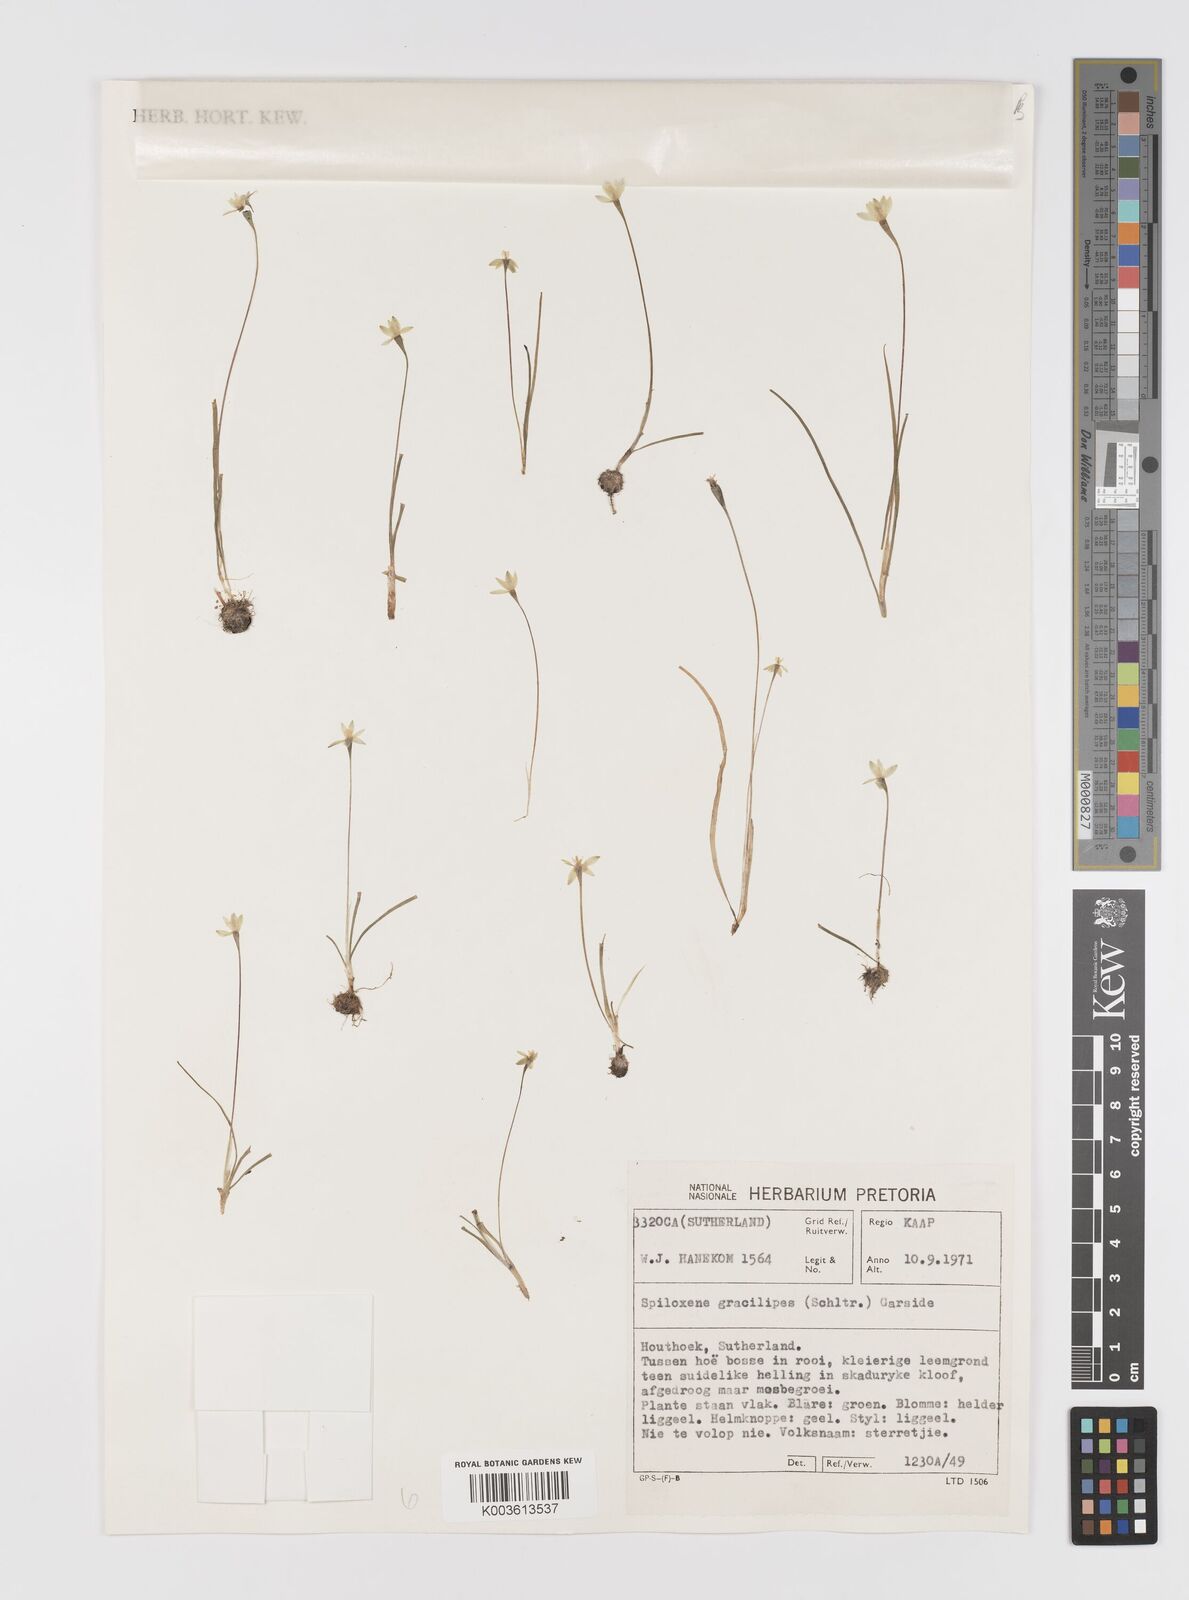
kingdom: Plantae
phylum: Tracheophyta
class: Liliopsida
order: Asparagales
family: Hypoxidaceae
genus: Pauridia
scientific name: Pauridia gracilipes
